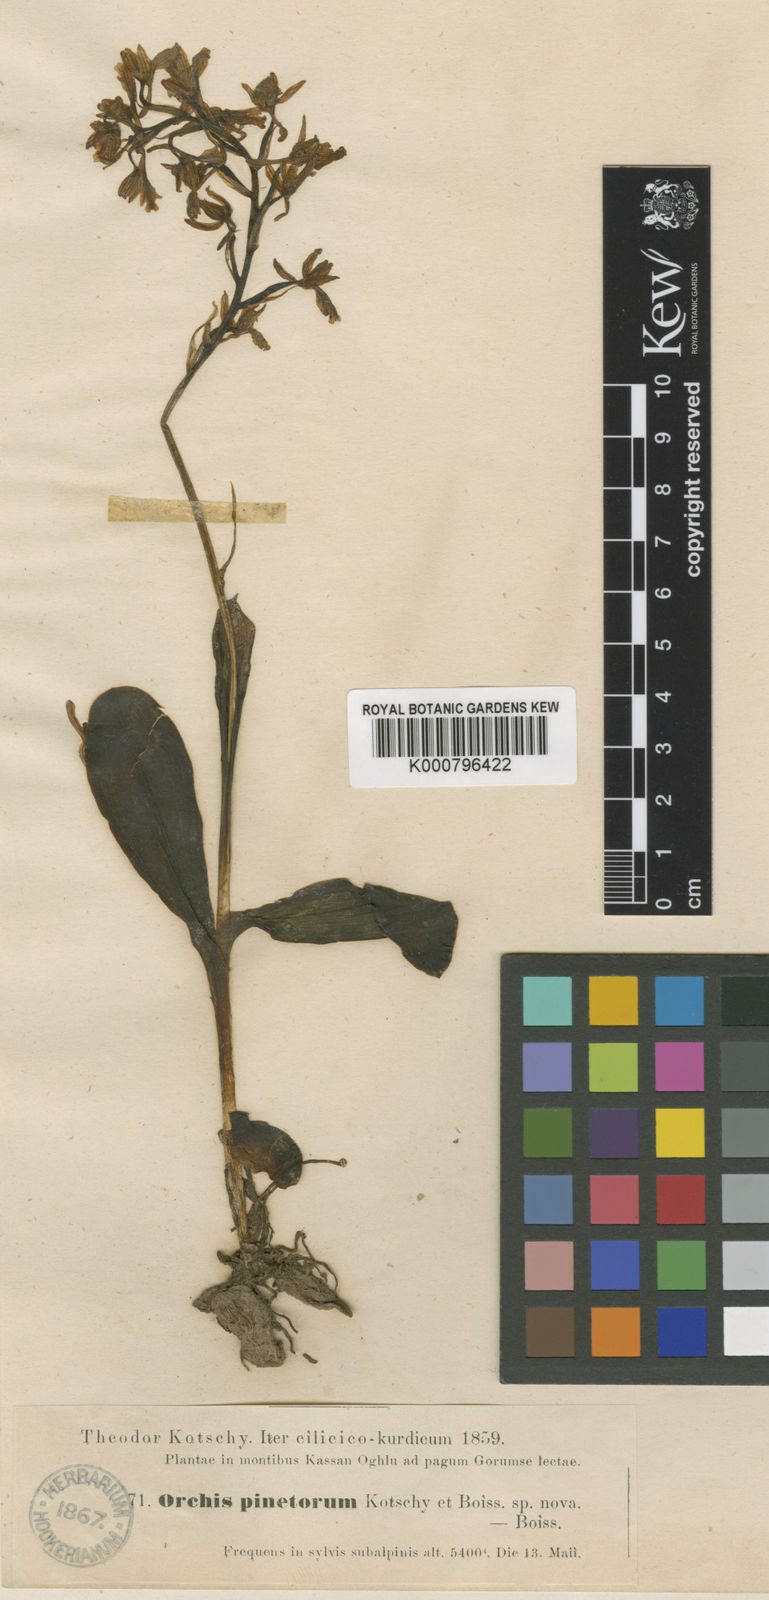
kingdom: Plantae
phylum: Tracheophyta
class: Liliopsida
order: Asparagales
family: Orchidaceae
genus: Orchis
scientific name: Orchis mascula
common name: Early-purple orchid
